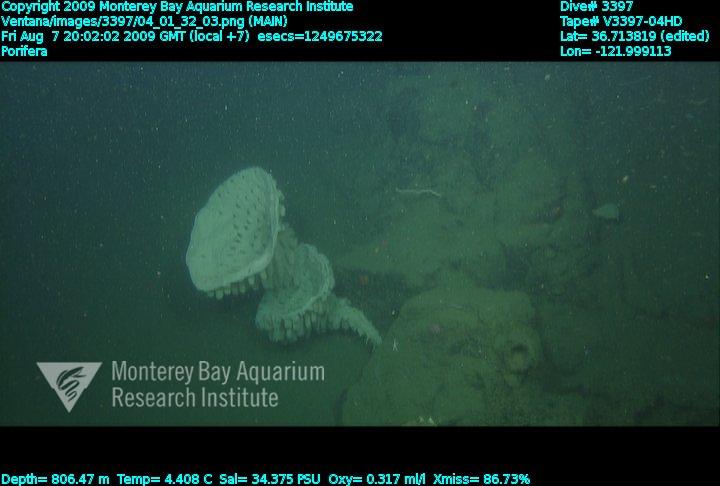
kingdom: Animalia
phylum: Porifera
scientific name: Porifera
